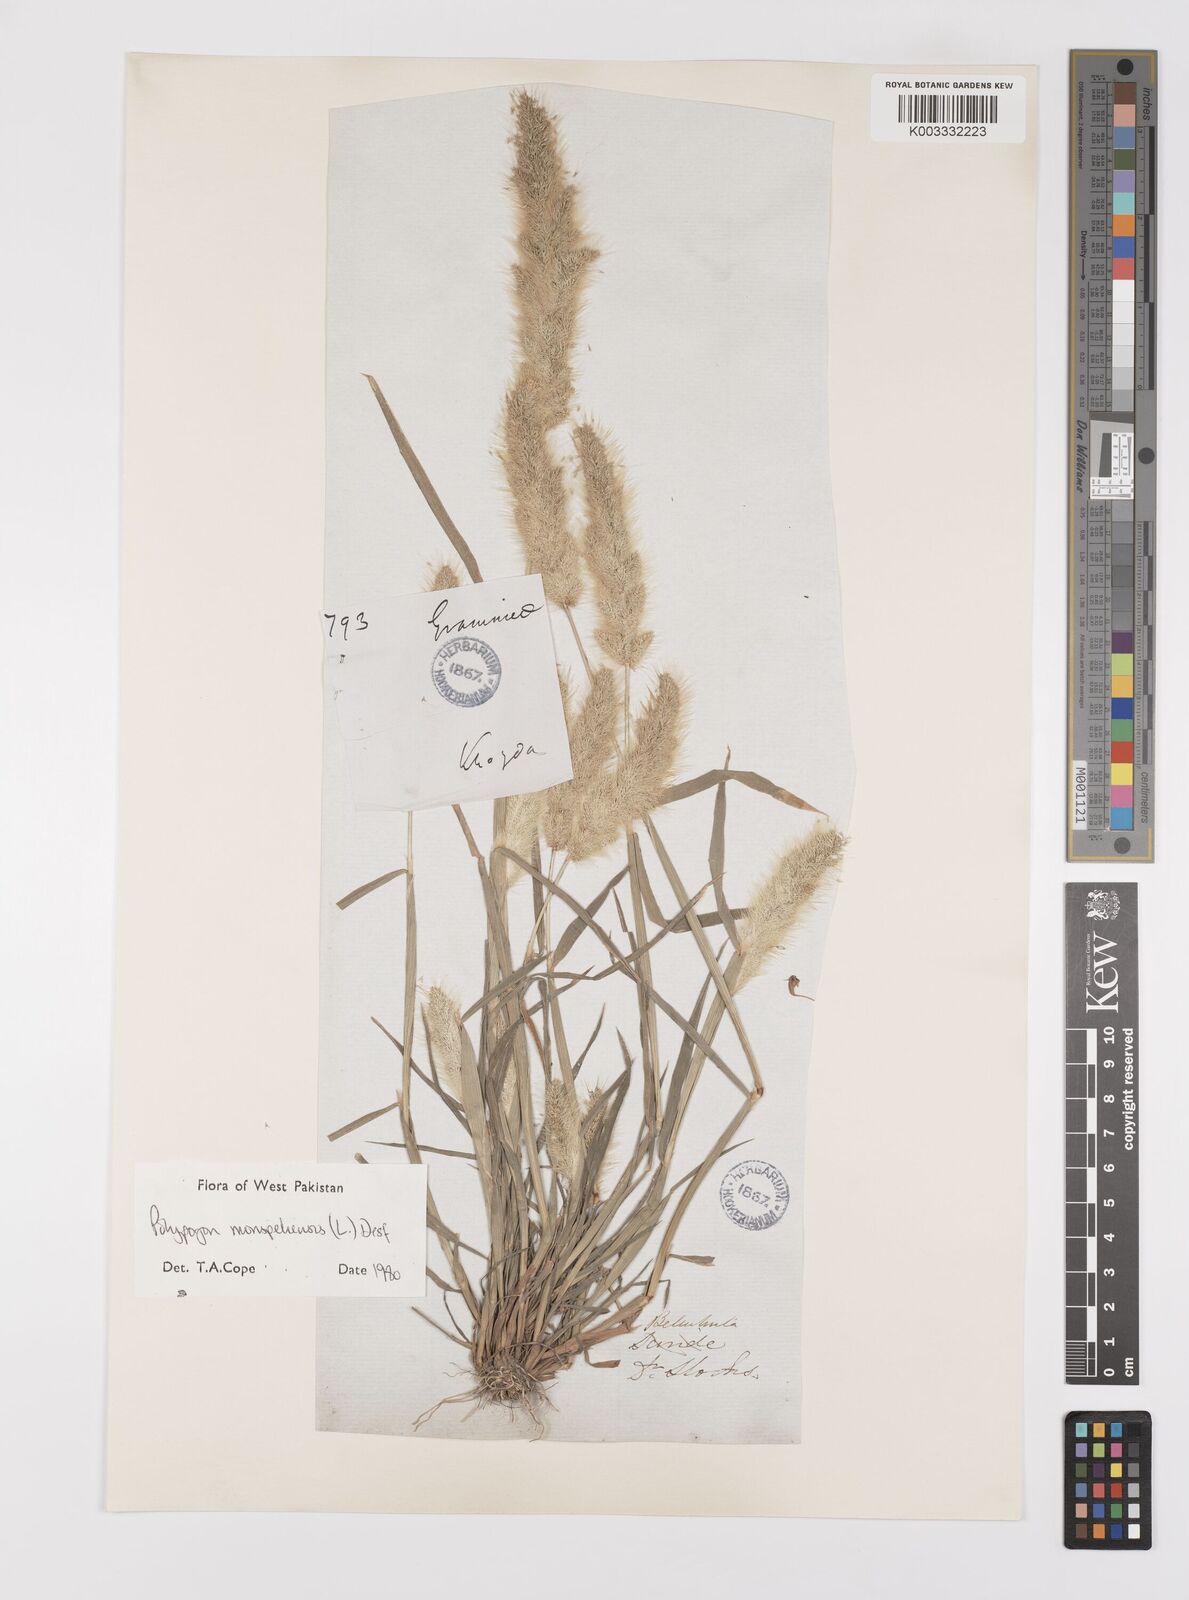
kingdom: Plantae
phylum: Tracheophyta
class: Liliopsida
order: Poales
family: Poaceae
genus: Polypogon
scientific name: Polypogon monspeliensis
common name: Annual rabbitsfoot grass
